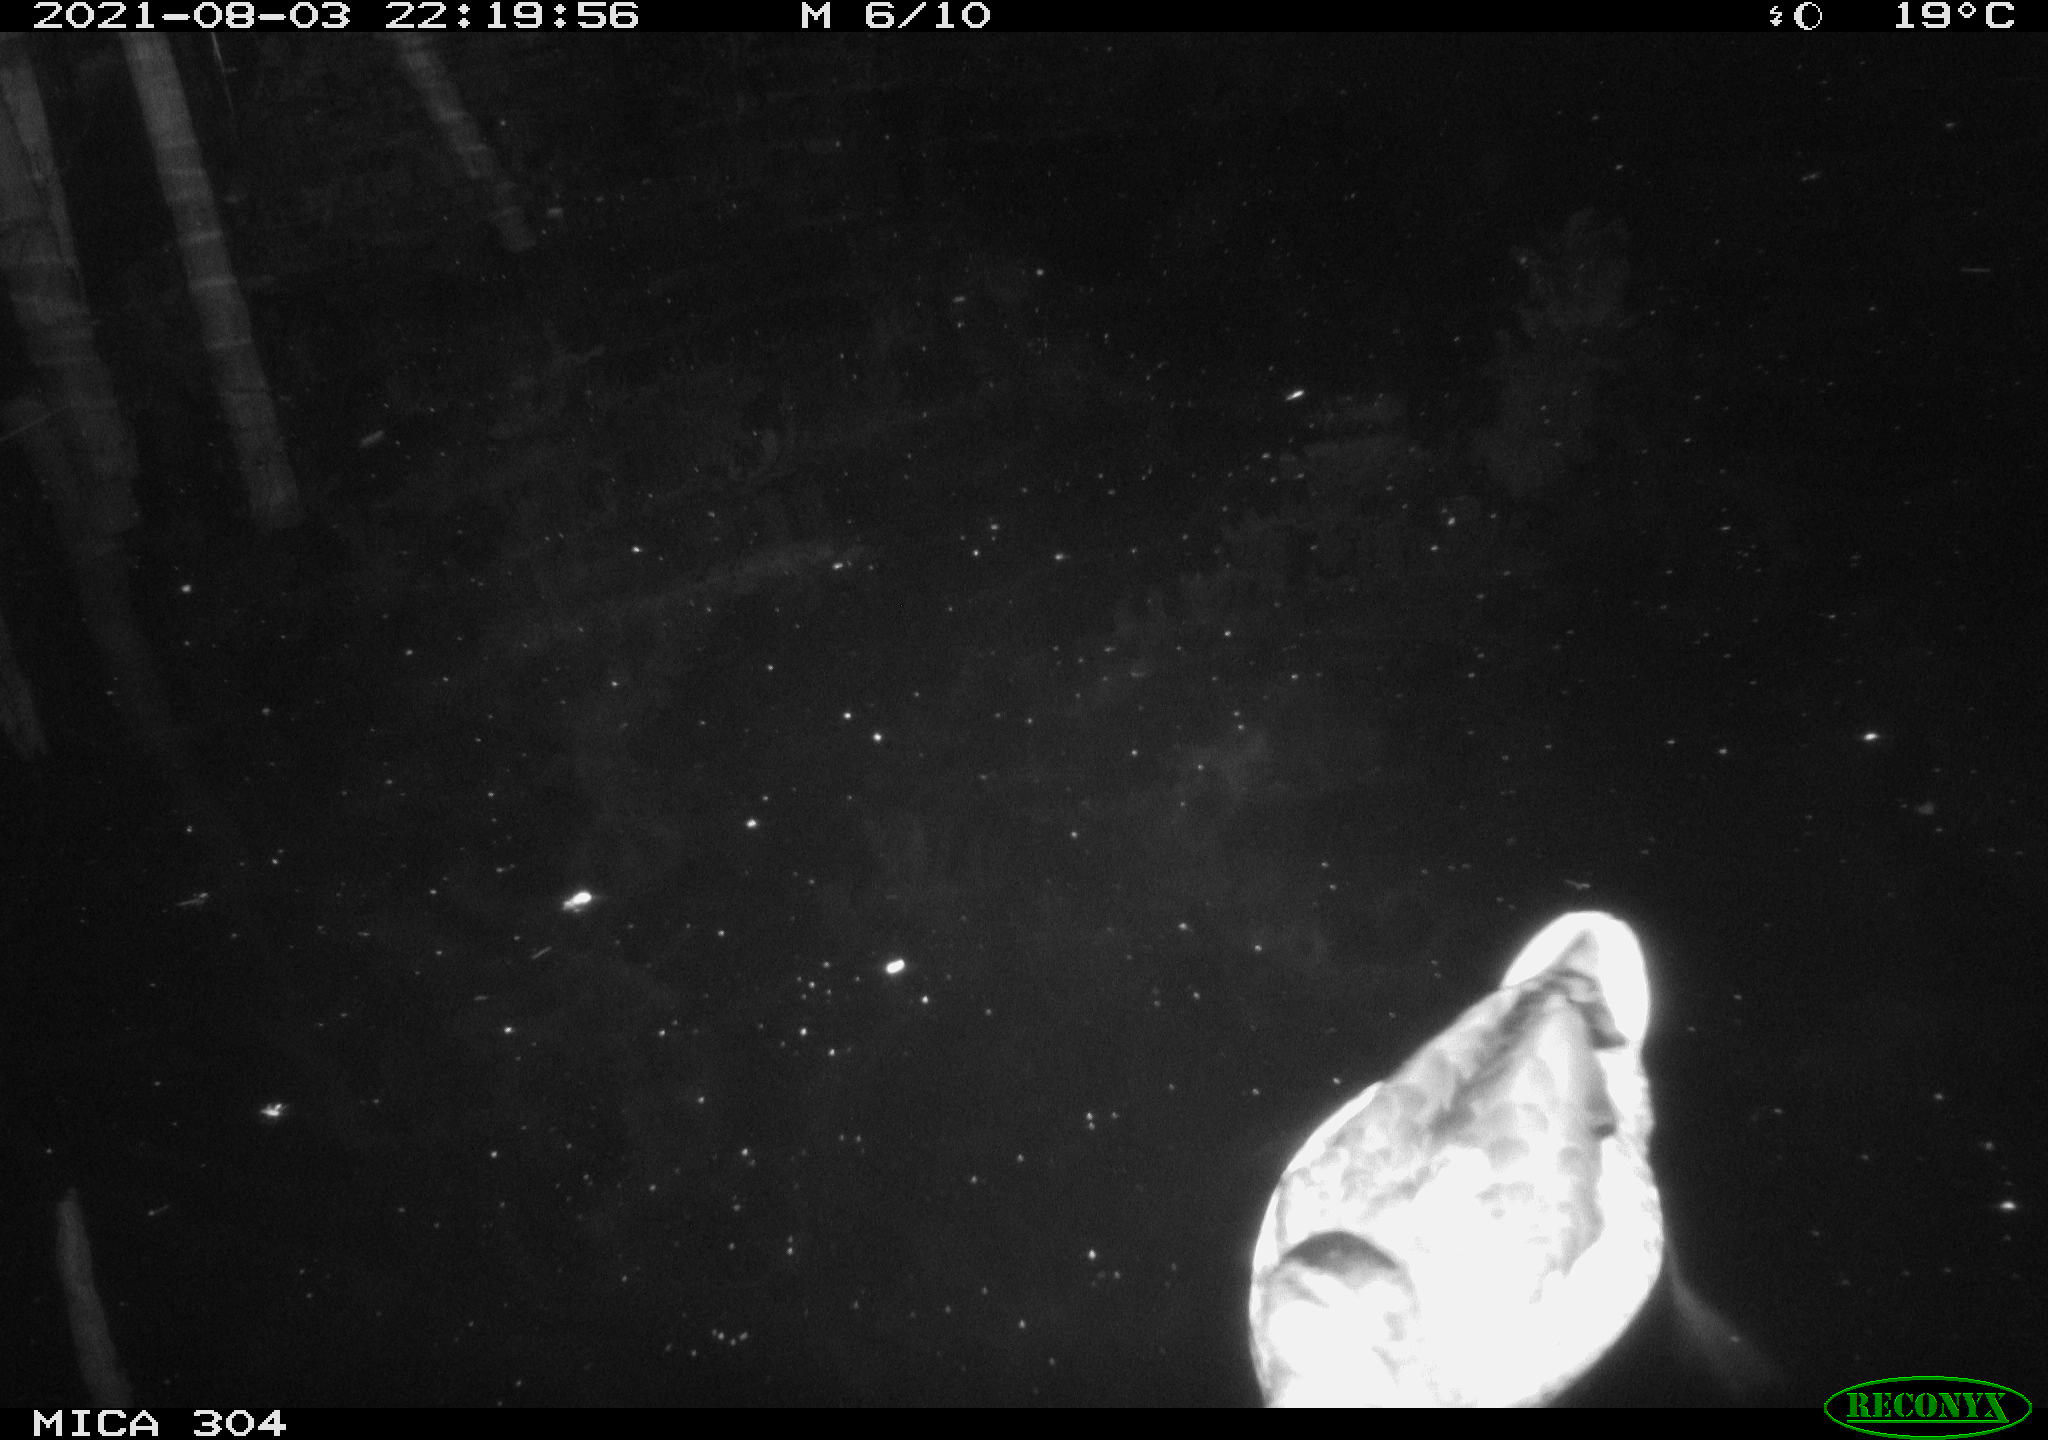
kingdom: Animalia
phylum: Chordata
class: Aves
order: Anseriformes
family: Anatidae
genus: Anas
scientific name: Anas platyrhynchos
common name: Mallard
